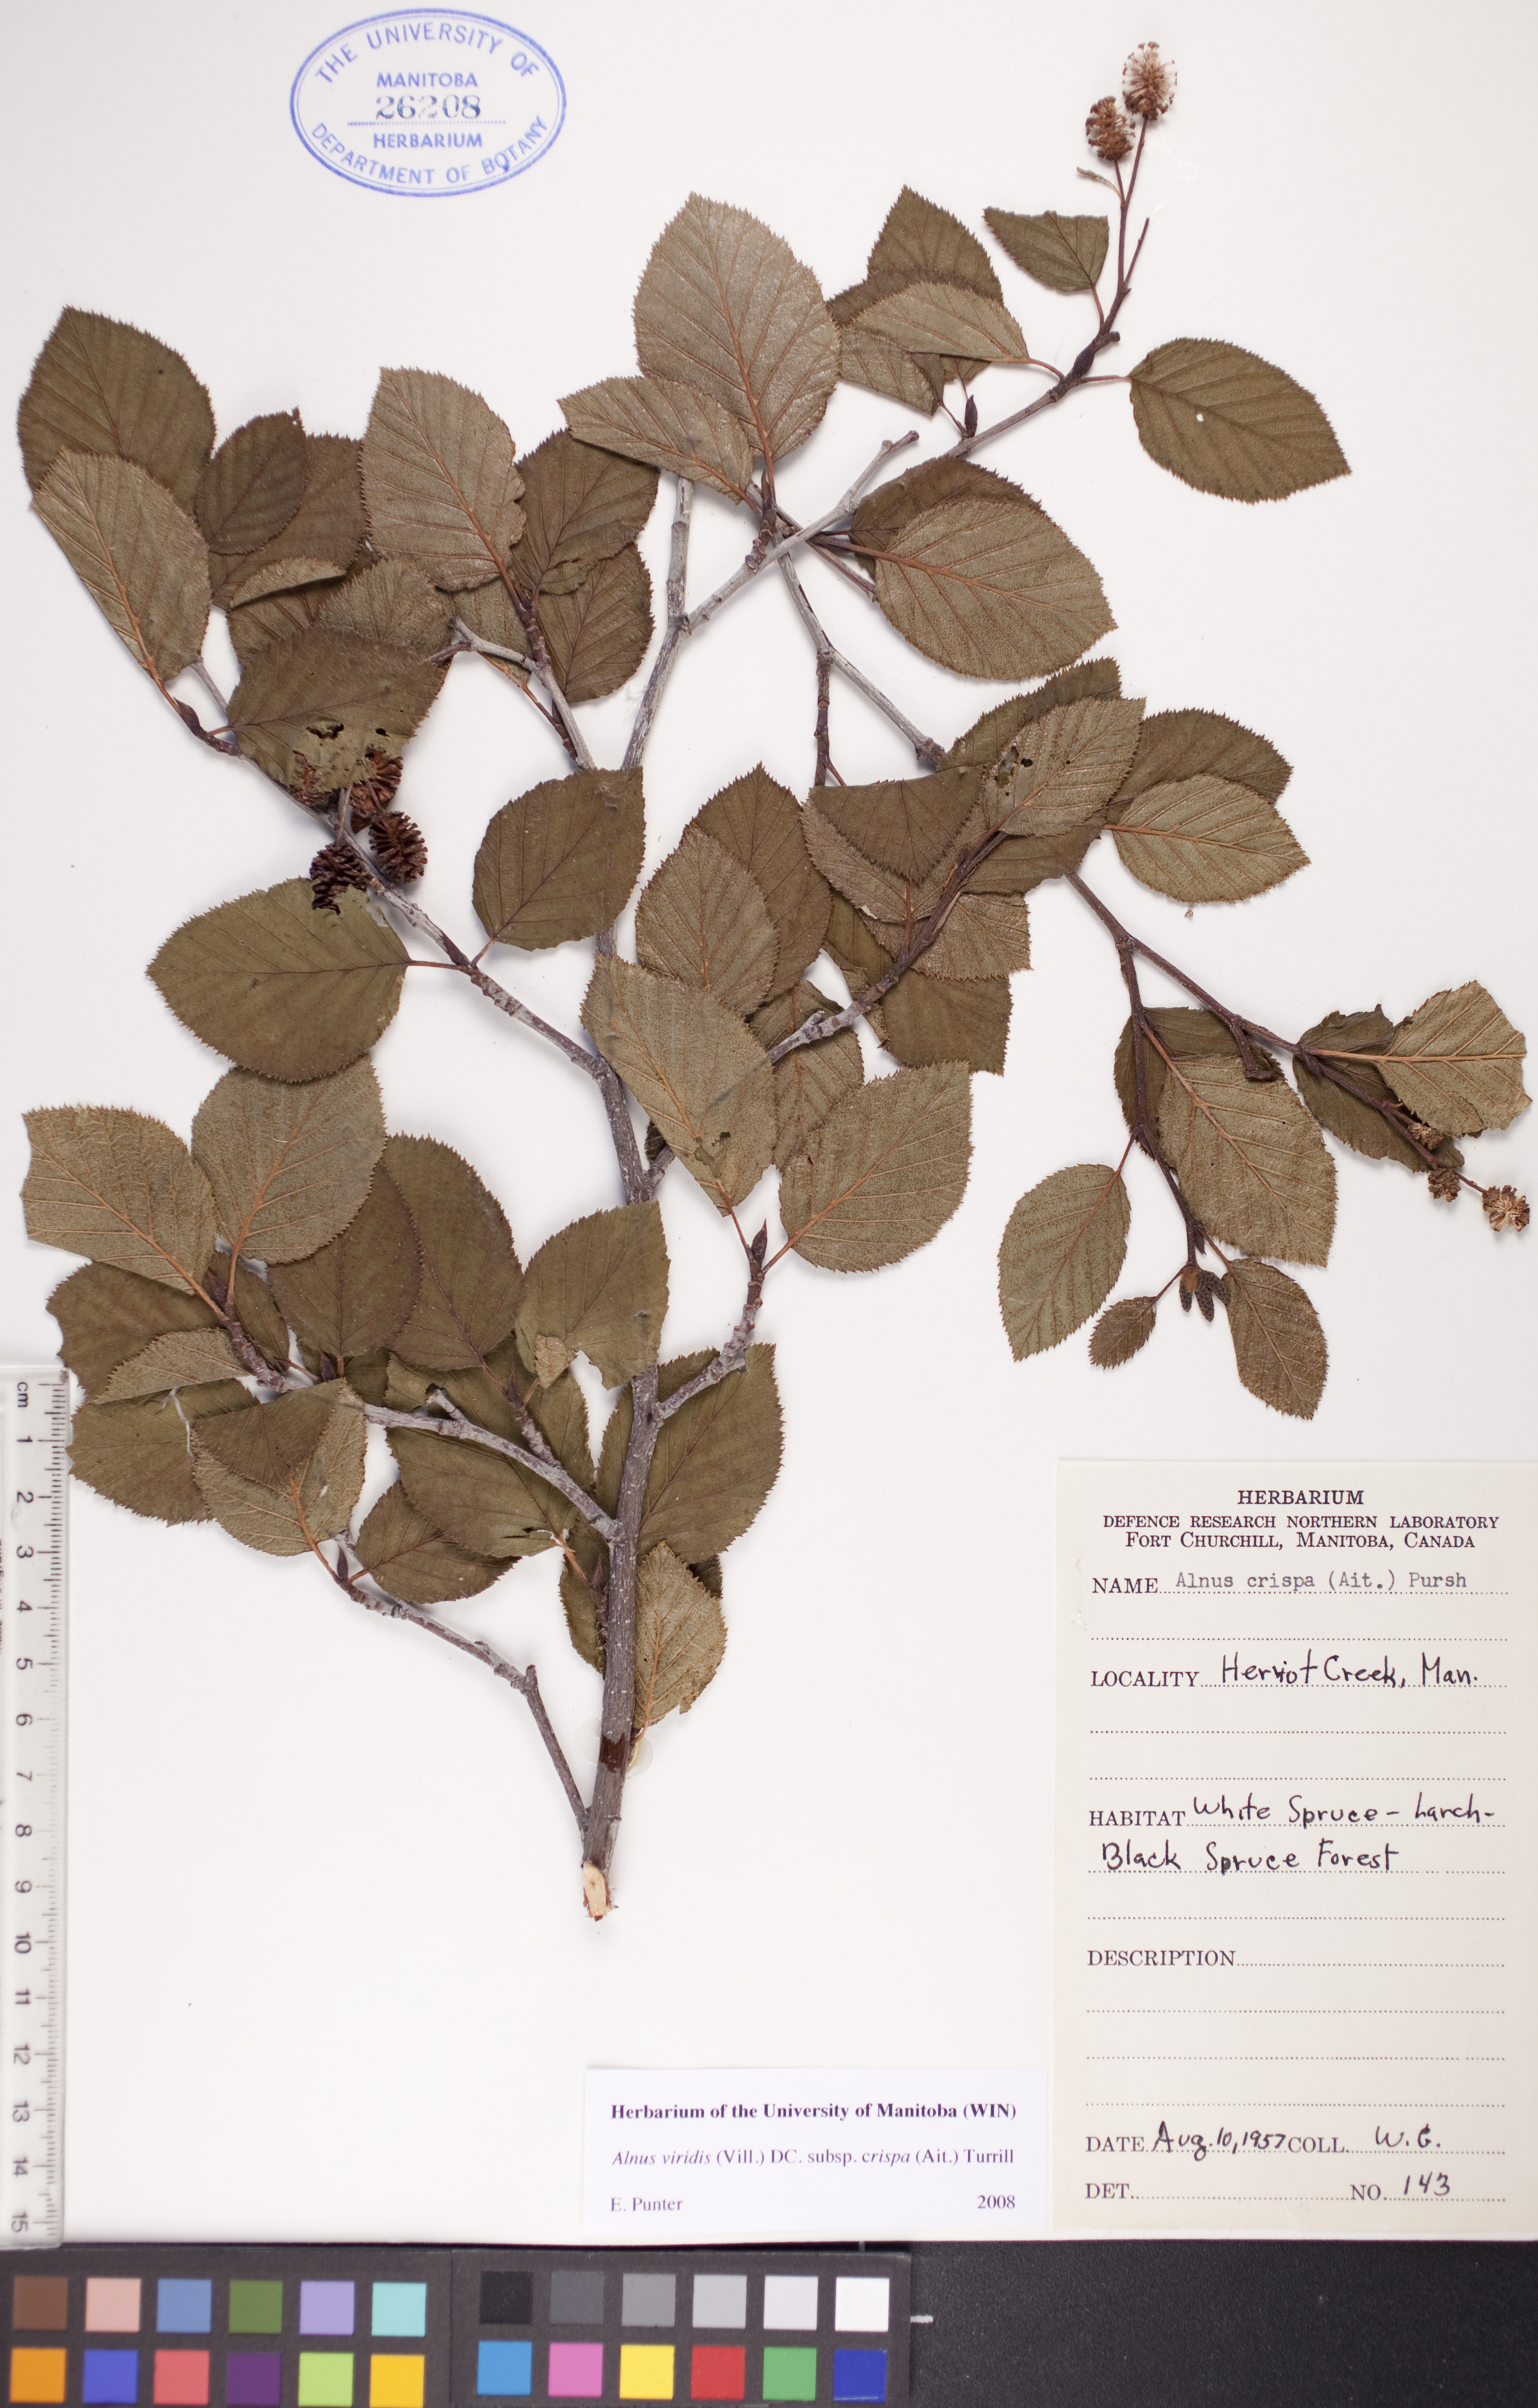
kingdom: Plantae
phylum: Tracheophyta
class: Magnoliopsida
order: Fagales
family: Betulaceae
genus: Alnus
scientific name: Alnus alnobetula
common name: Green alder
